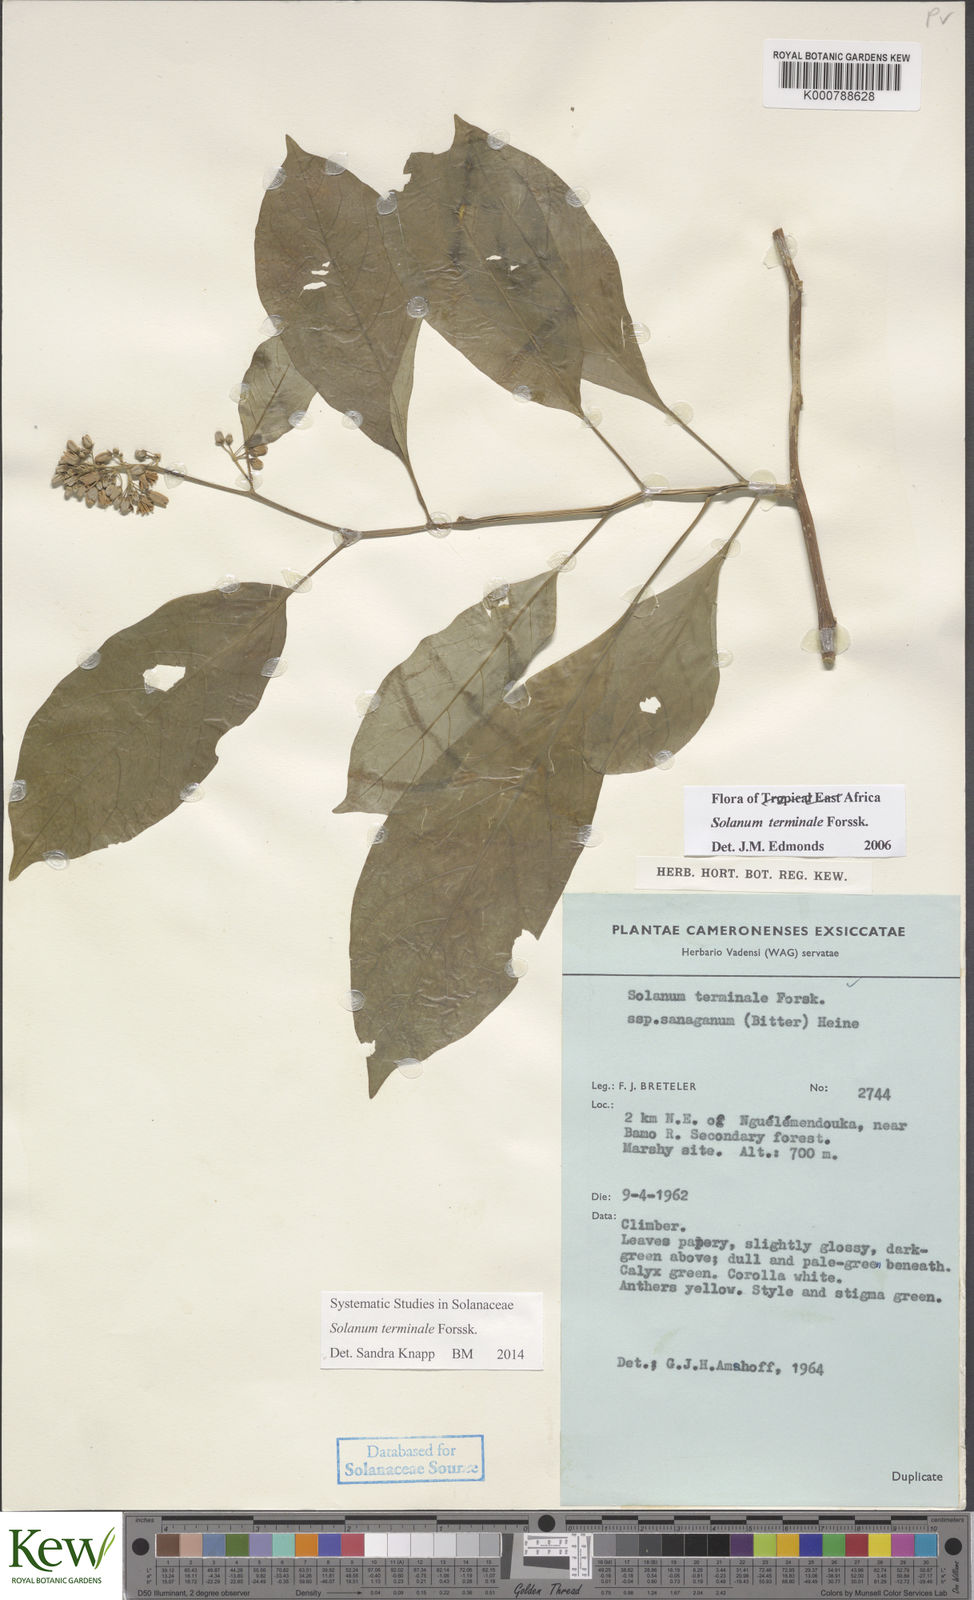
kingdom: Plantae
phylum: Tracheophyta
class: Magnoliopsida
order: Solanales
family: Solanaceae
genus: Solanum
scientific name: Solanum terminale
